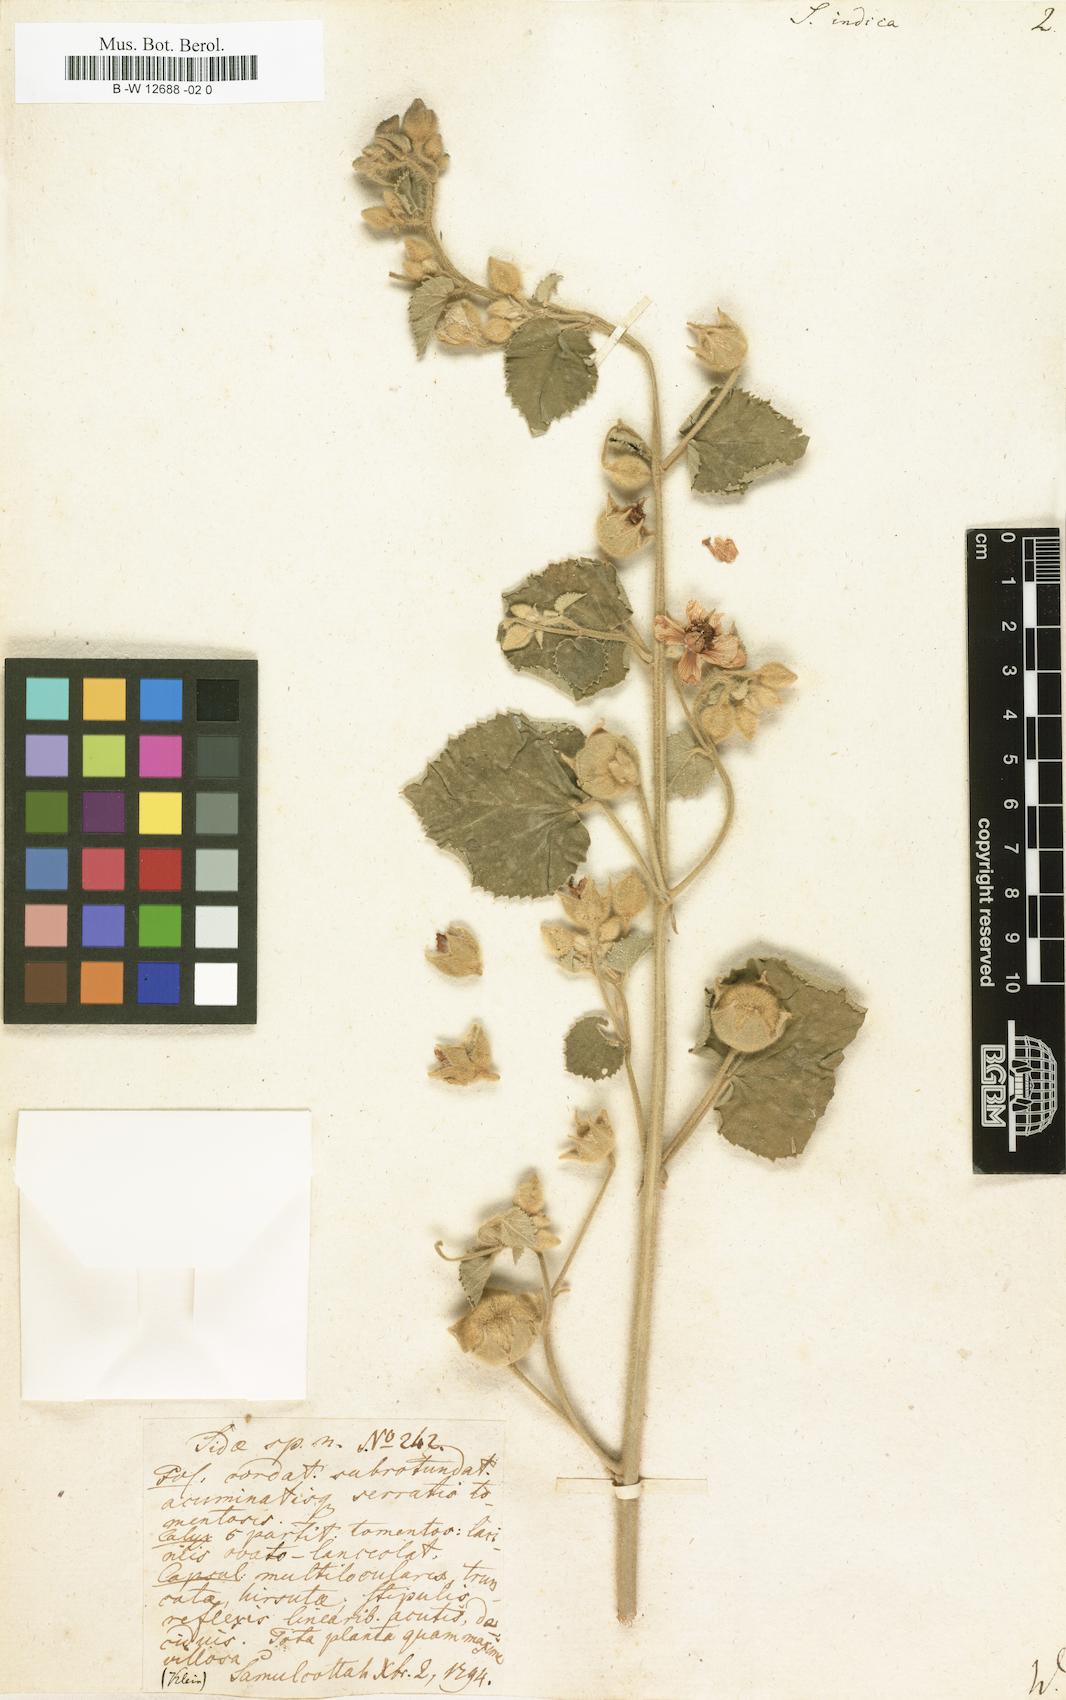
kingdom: Plantae
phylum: Tracheophyta
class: Magnoliopsida
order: Malvales
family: Malvaceae
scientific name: Malvaceae
